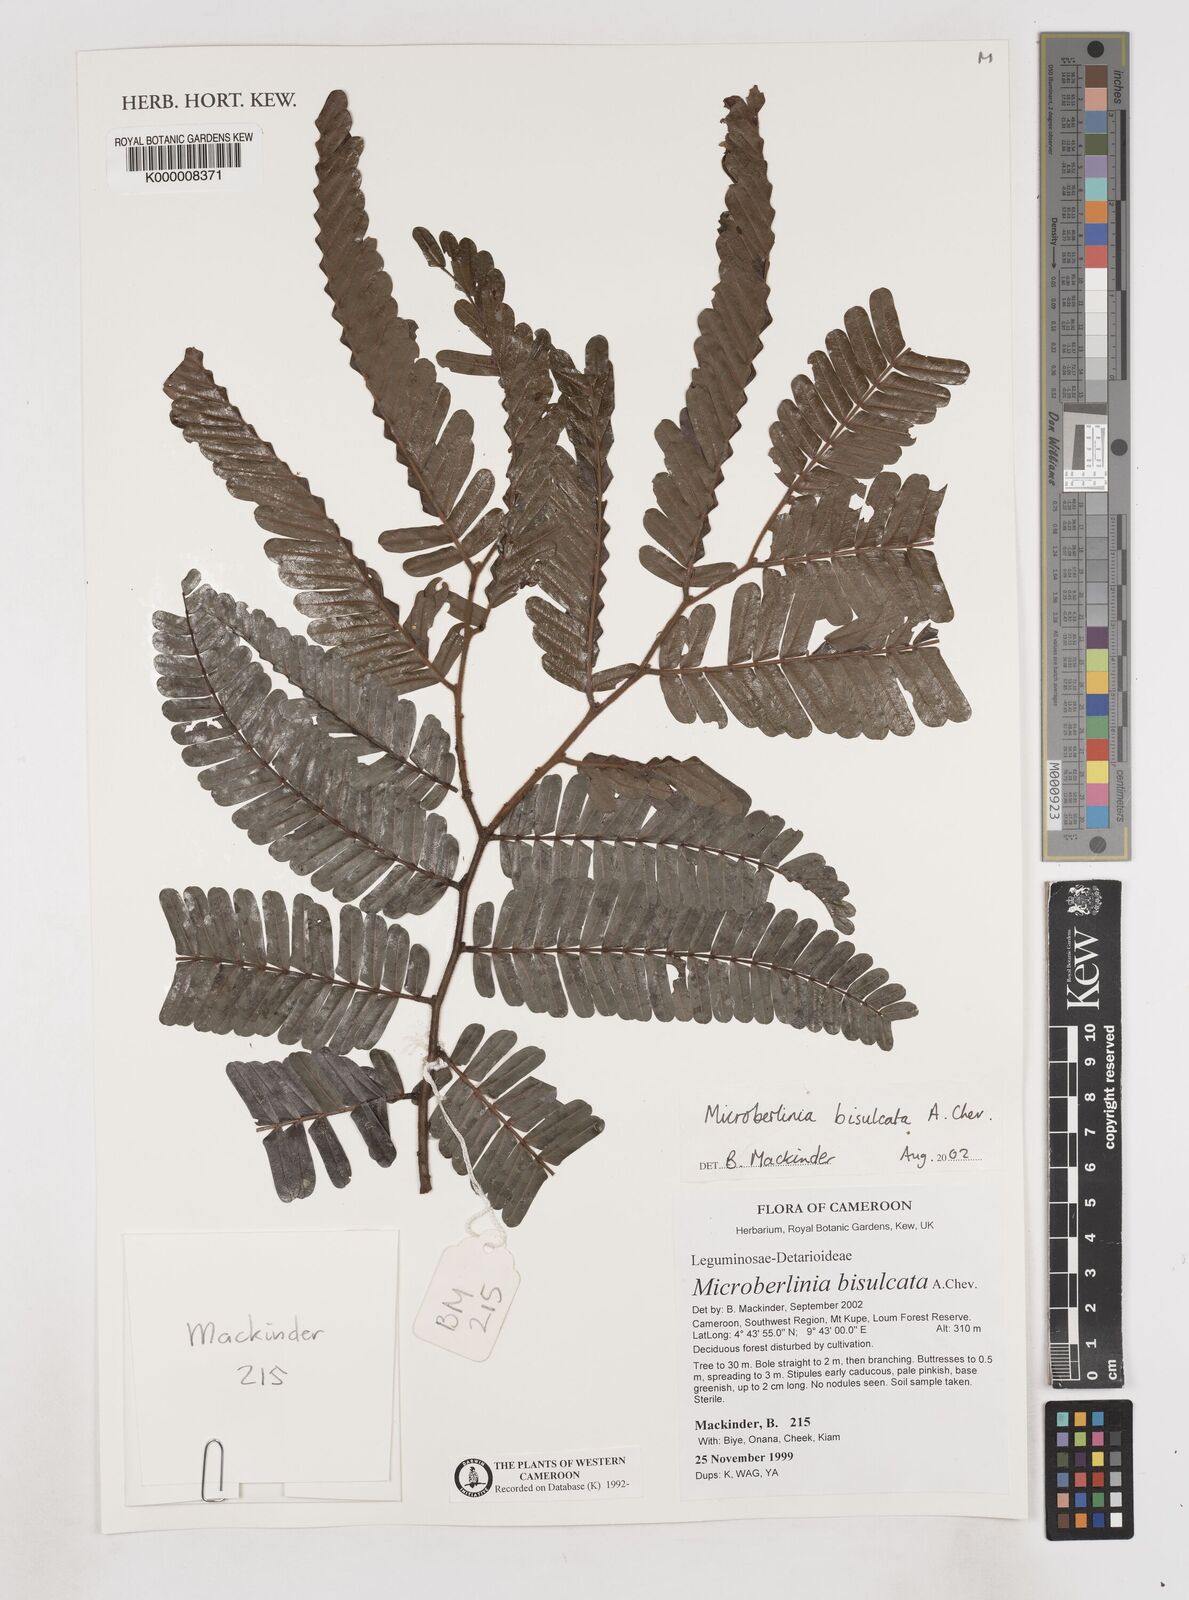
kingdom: Plantae
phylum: Tracheophyta
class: Magnoliopsida
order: Fabales
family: Fabaceae
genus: Microberlinia
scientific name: Microberlinia bisulcata
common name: Zingana
